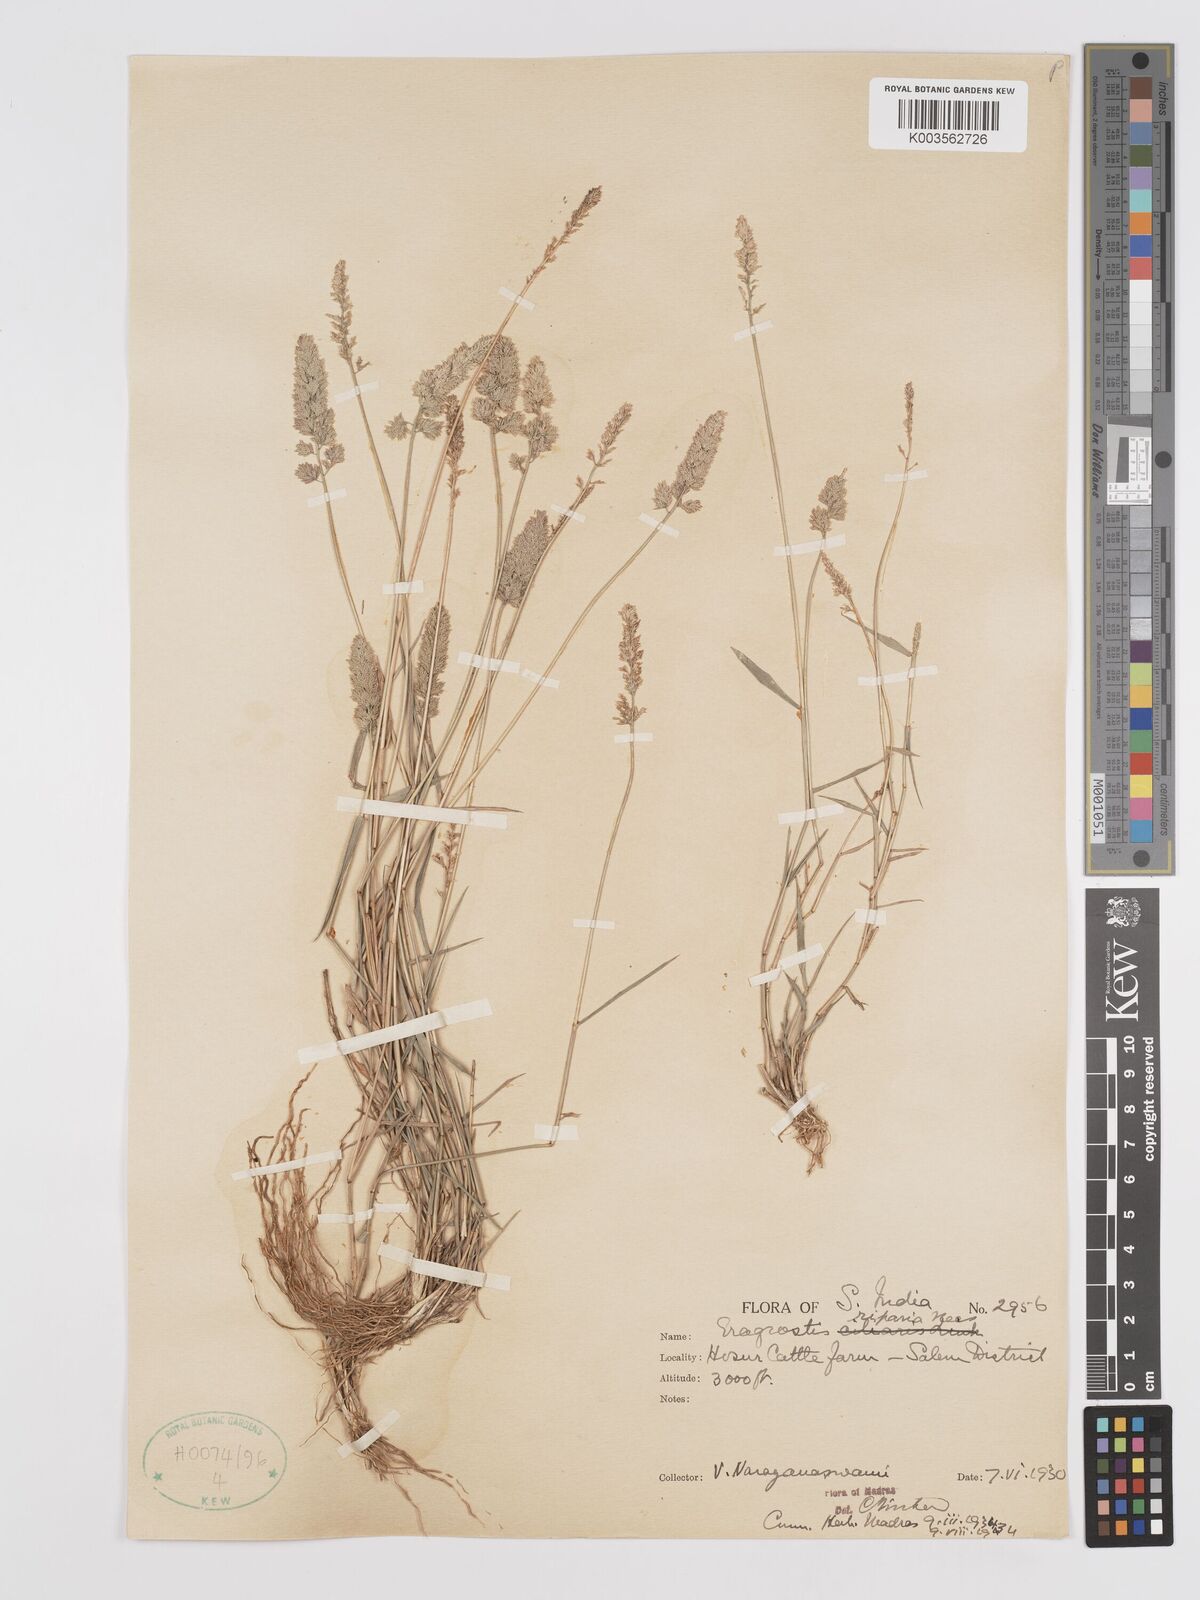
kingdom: Plantae
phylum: Tracheophyta
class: Liliopsida
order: Poales
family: Poaceae
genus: Eragrostis
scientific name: Eragrostis riparia
